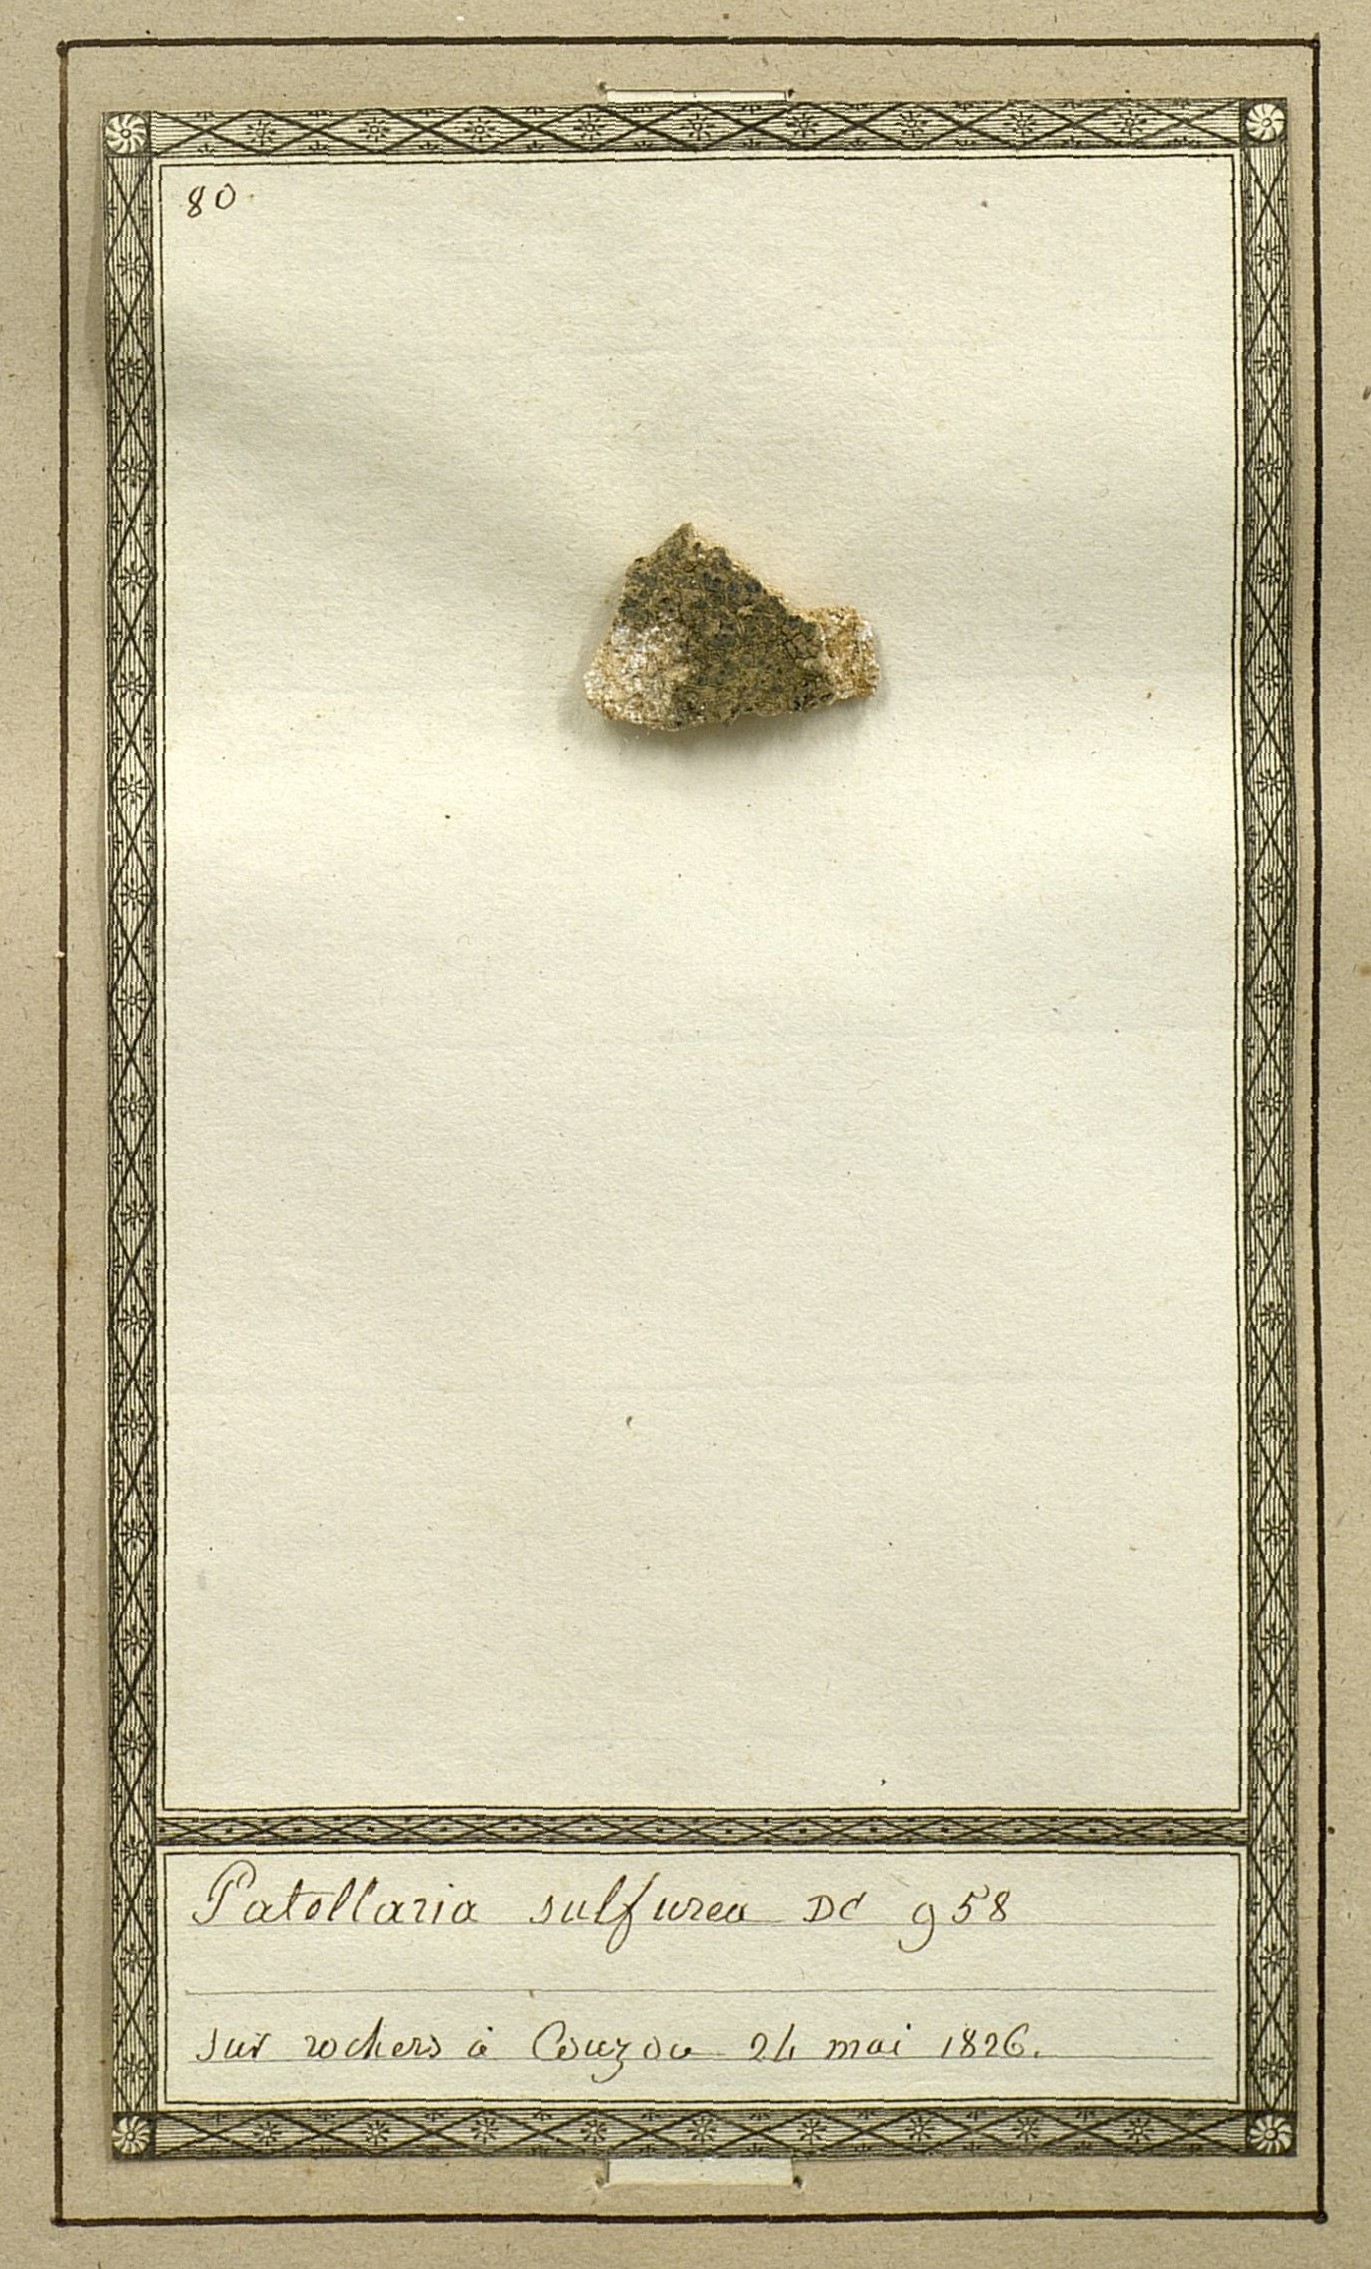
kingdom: Fungi
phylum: Ascomycota
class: Lecanoromycetes
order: Lecanorales
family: Lecanoraceae
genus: Glaucomaria
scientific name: Glaucomaria sulphurea
